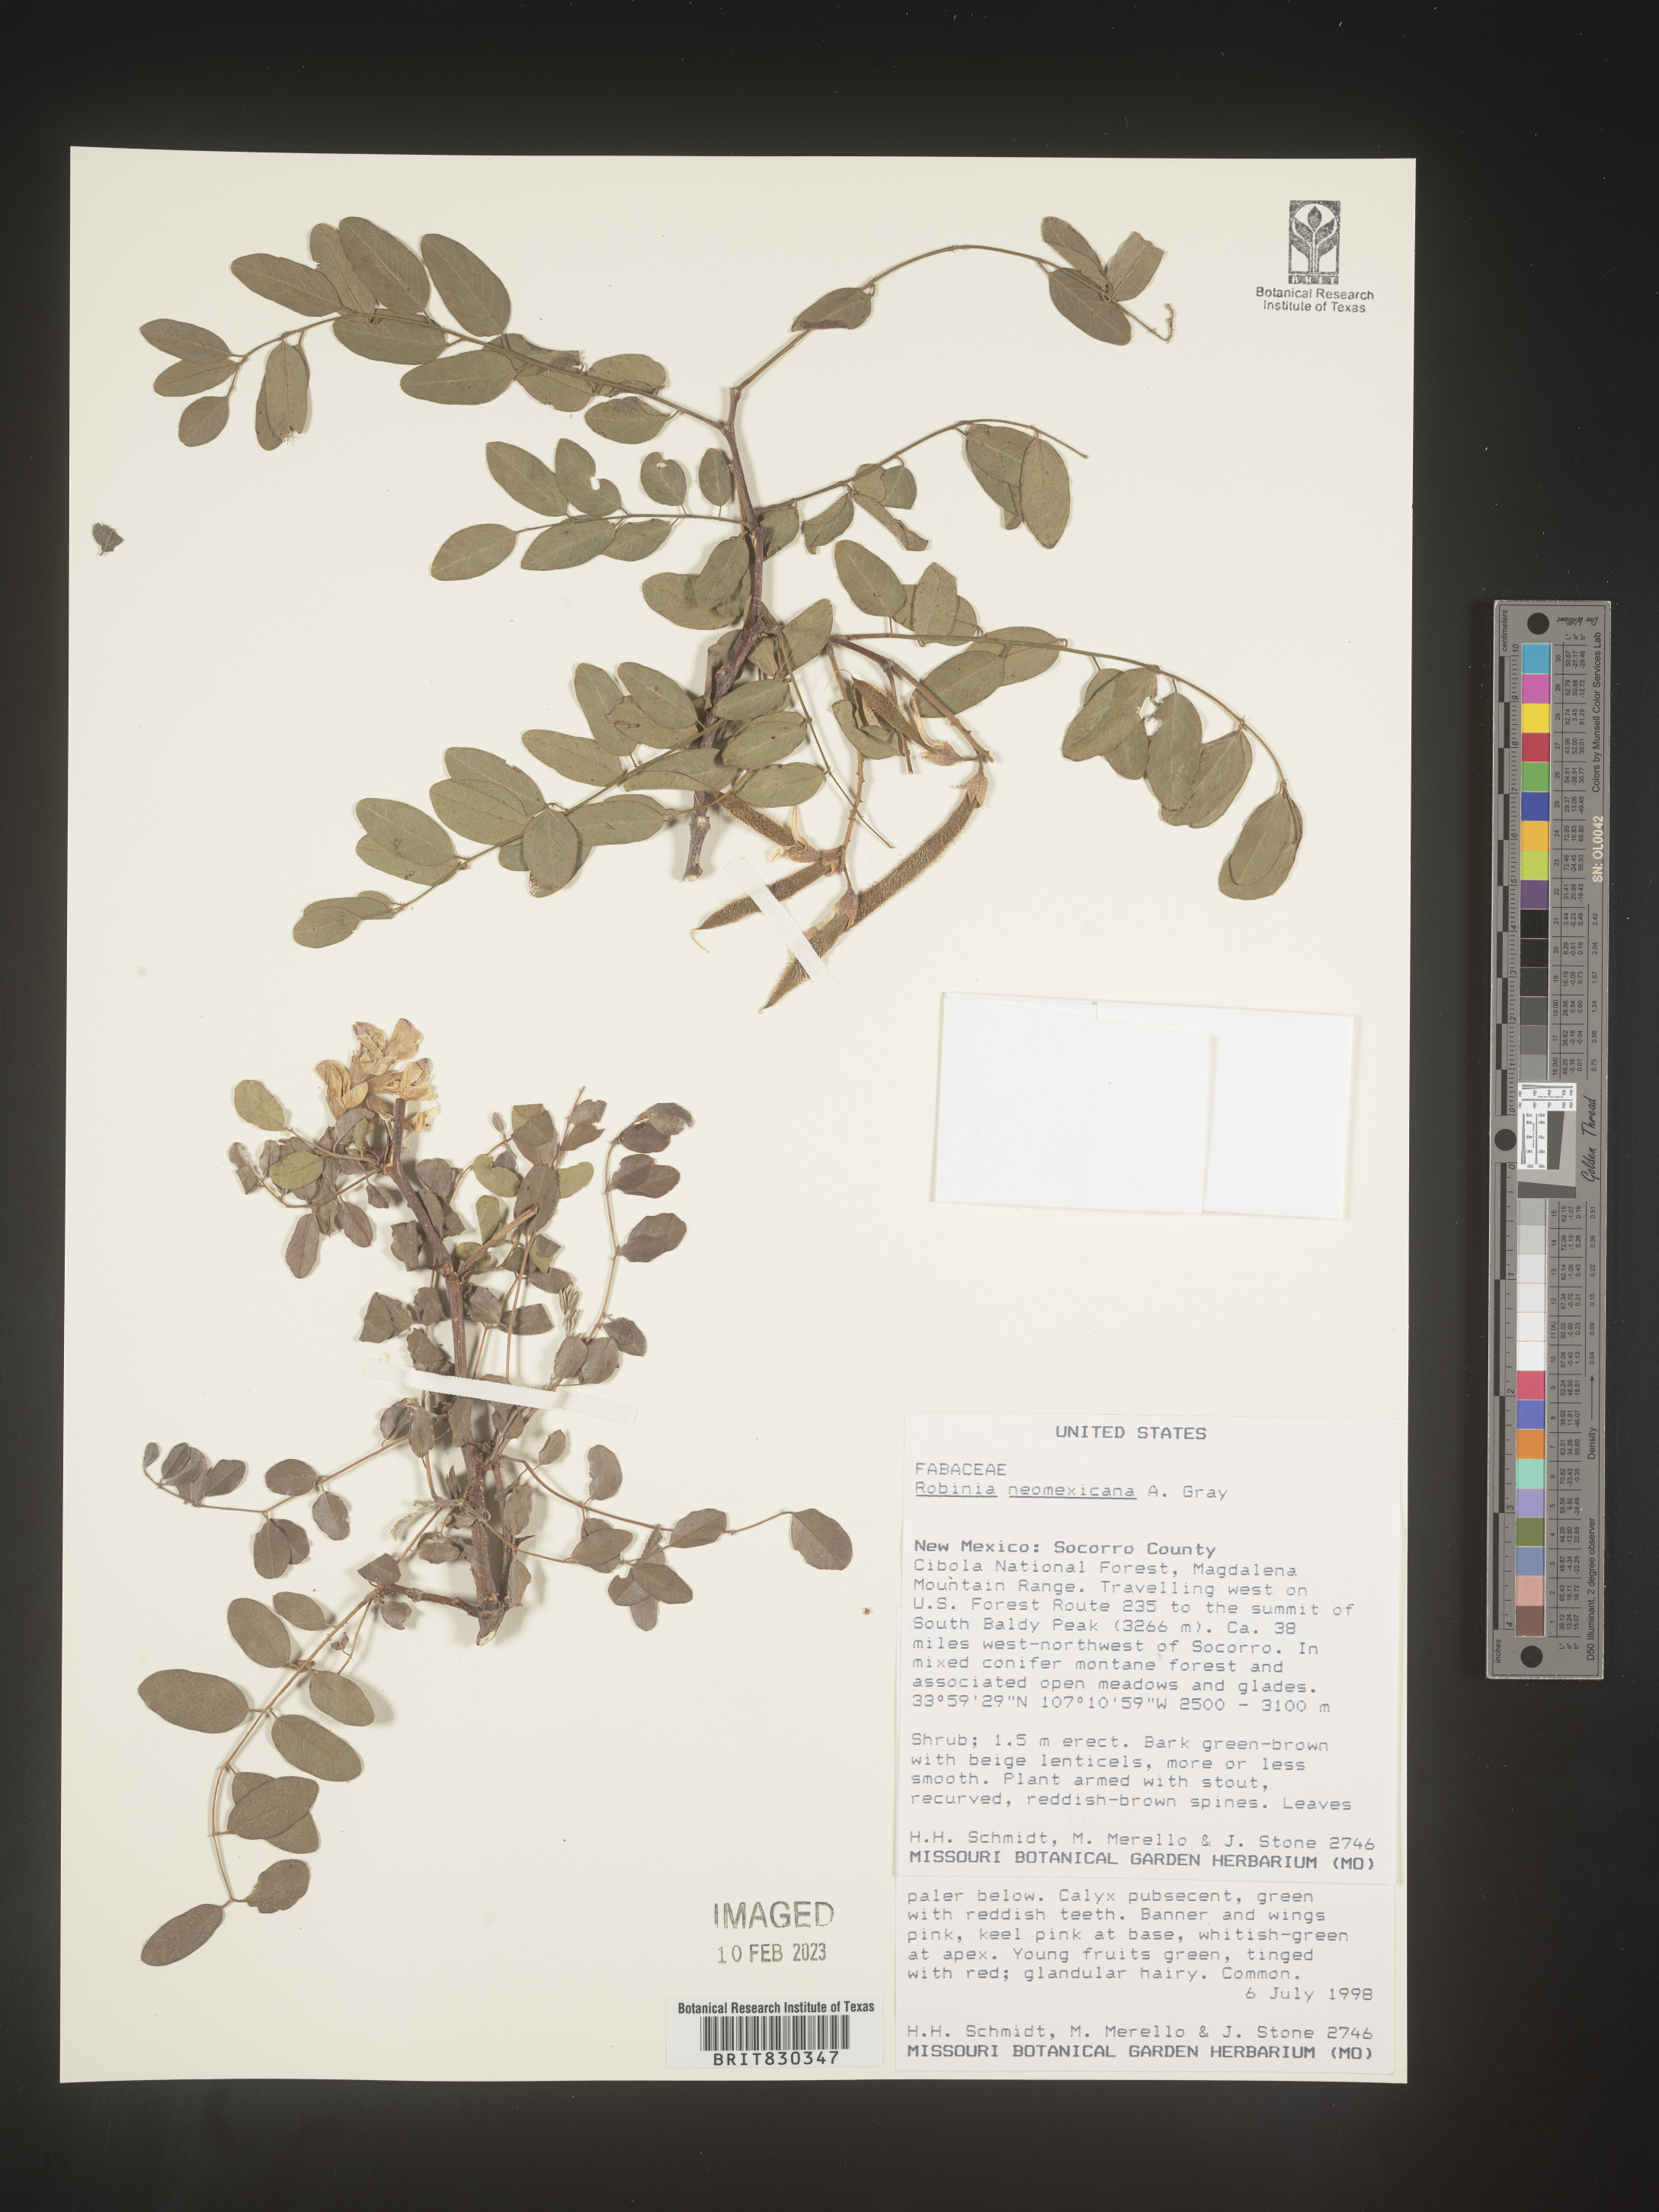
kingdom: Plantae
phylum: Tracheophyta
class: Magnoliopsida
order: Fabales
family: Fabaceae
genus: Robinia
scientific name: Robinia neomexicana
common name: New mexico locust
